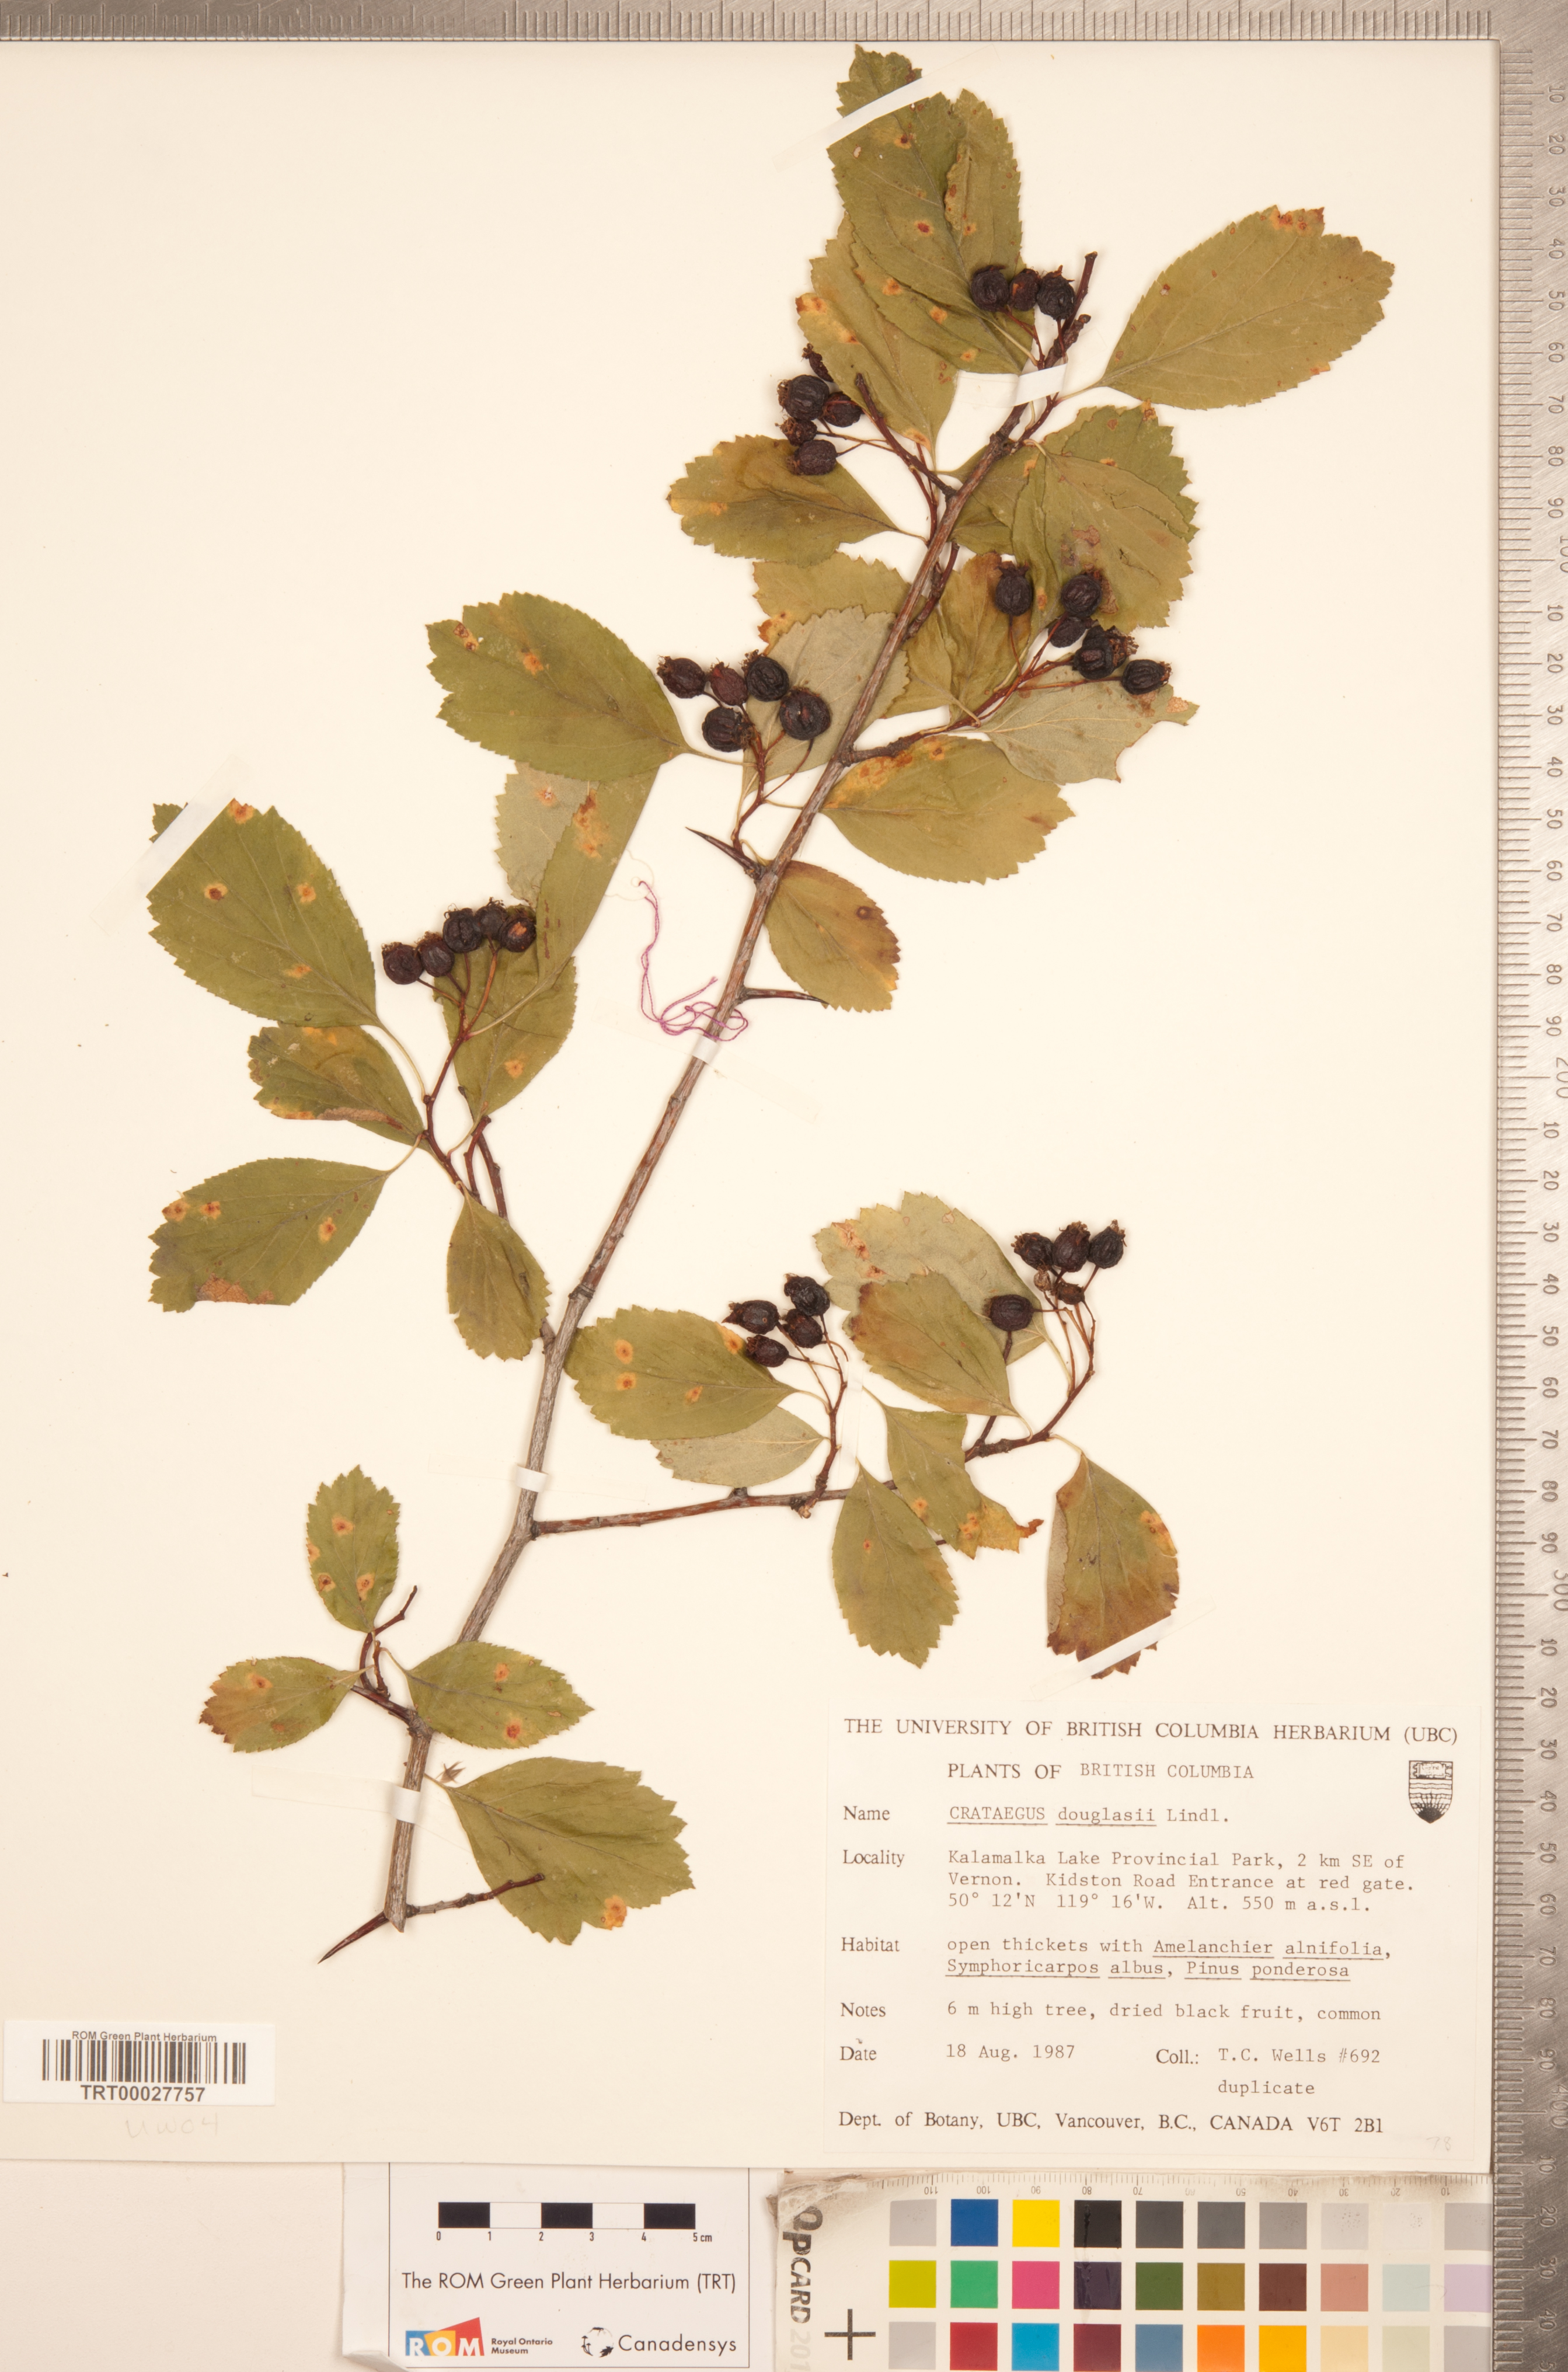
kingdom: Plantae
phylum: Tracheophyta
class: Magnoliopsida
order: Rosales
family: Rosaceae
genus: Crataegus
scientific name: Crataegus douglasii
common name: Black hawthorn
